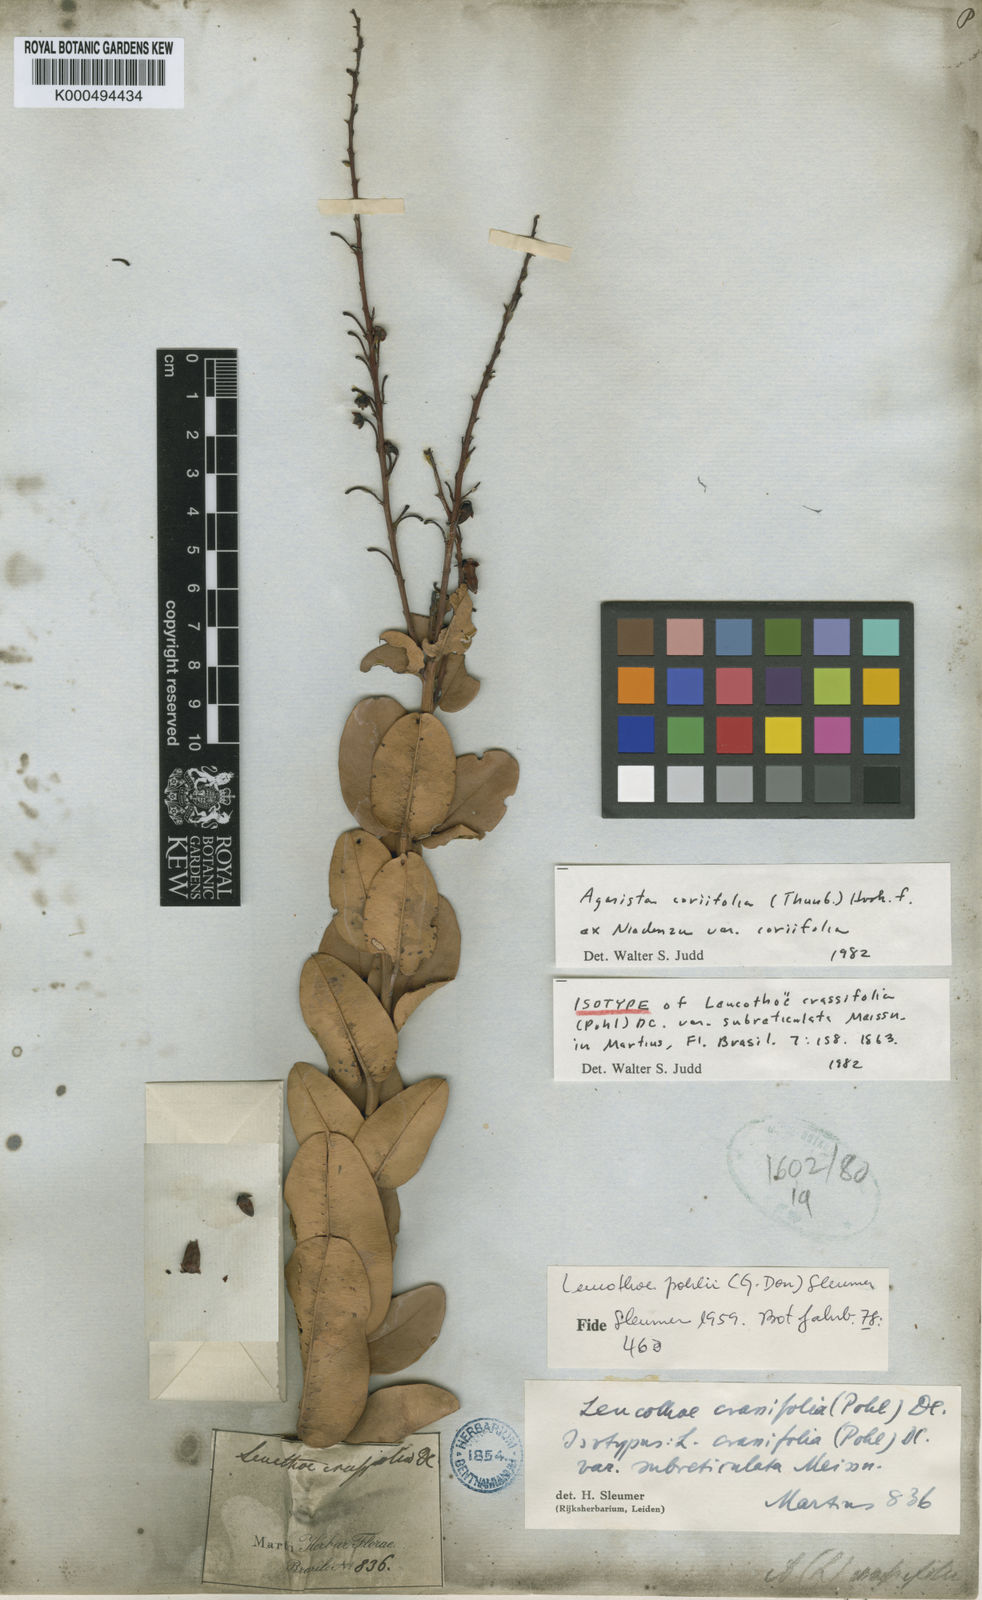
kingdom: Plantae
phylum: Tracheophyta
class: Magnoliopsida
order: Ericales
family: Ericaceae
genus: Agarista
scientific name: Agarista coriifolia
